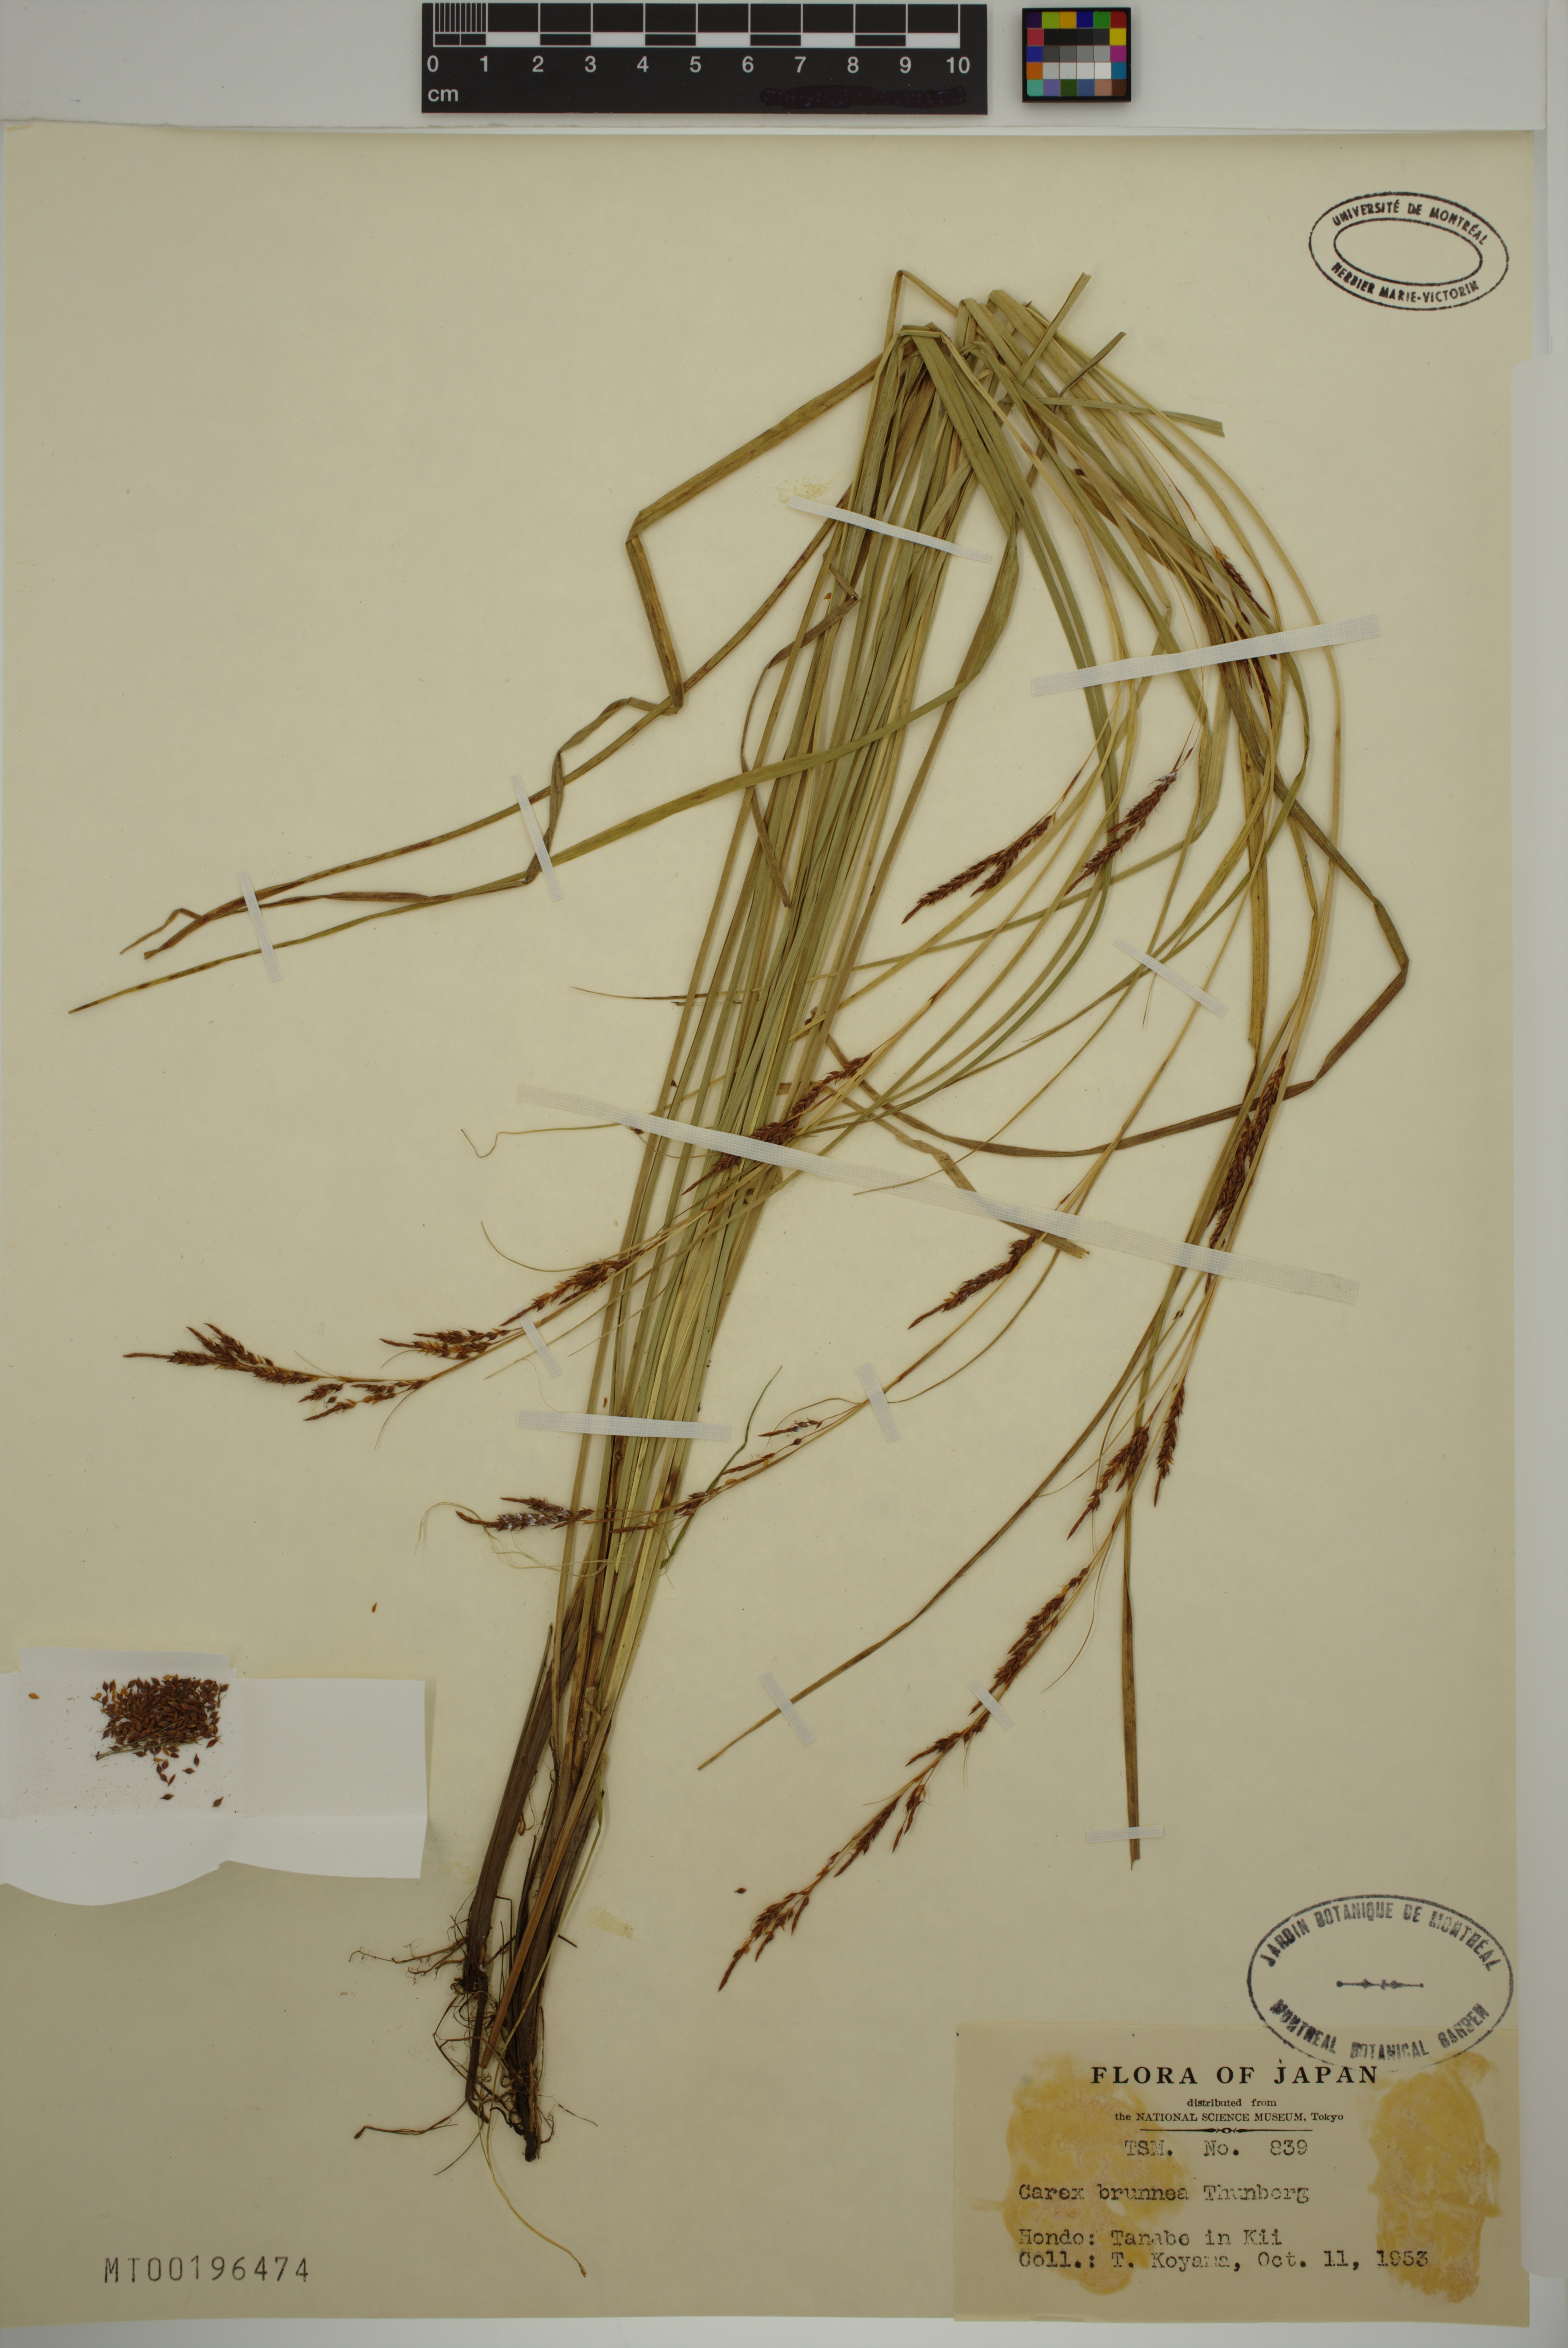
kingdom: Plantae
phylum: Tracheophyta
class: Liliopsida
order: Poales
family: Cyperaceae
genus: Carex
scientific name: Carex brunnea
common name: Greater brown sedge
